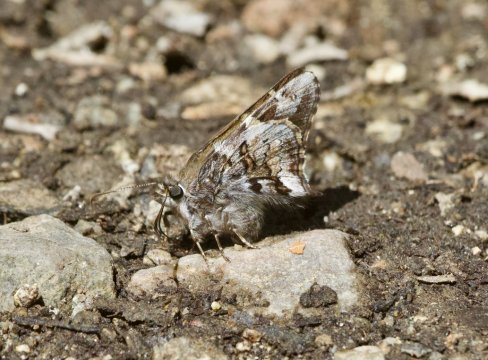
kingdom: Animalia
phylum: Arthropoda
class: Insecta
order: Lepidoptera
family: Hesperiidae
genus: Zestusa
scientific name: Zestusa dorus
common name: Short-tailed Skipper
